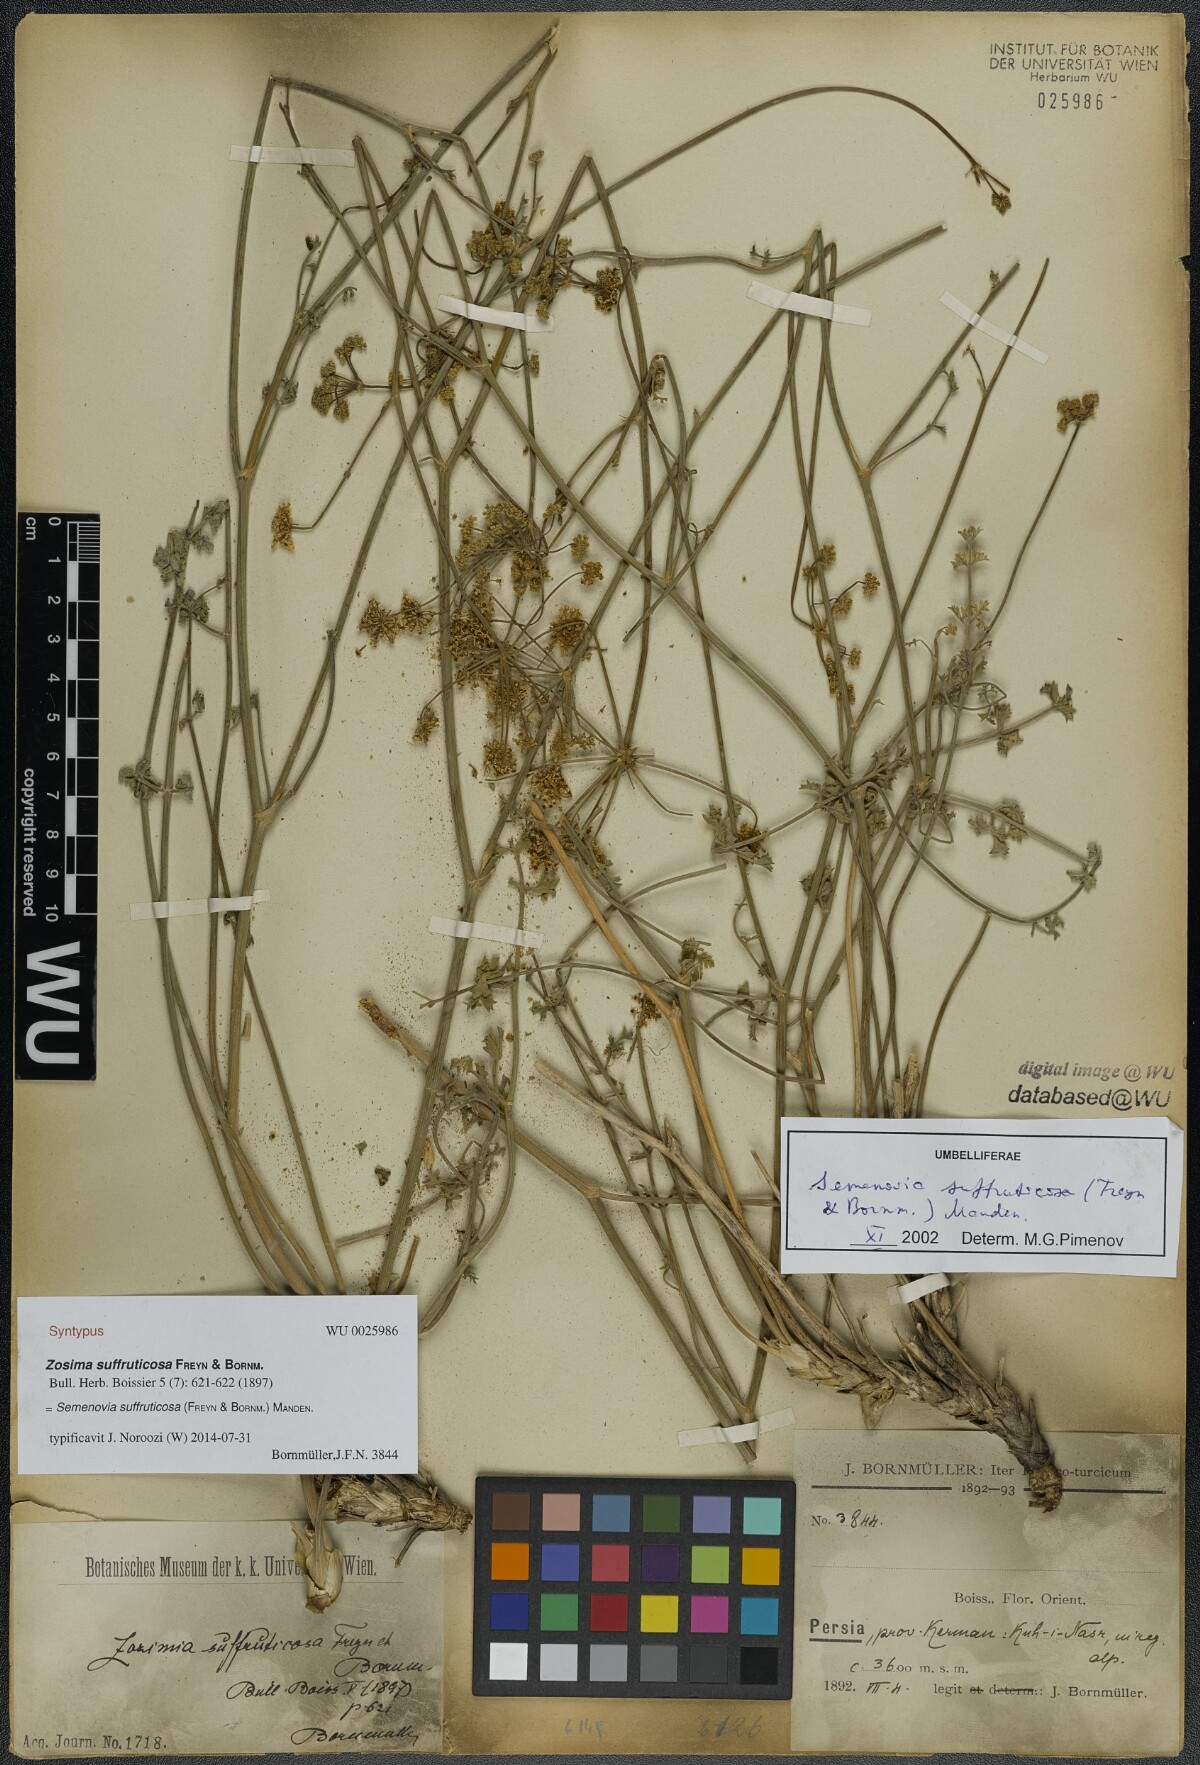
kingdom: Plantae
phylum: Tracheophyta
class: Magnoliopsida
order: Apiales
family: Apiaceae
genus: Semenovia
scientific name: Semenovia suffruticosa
